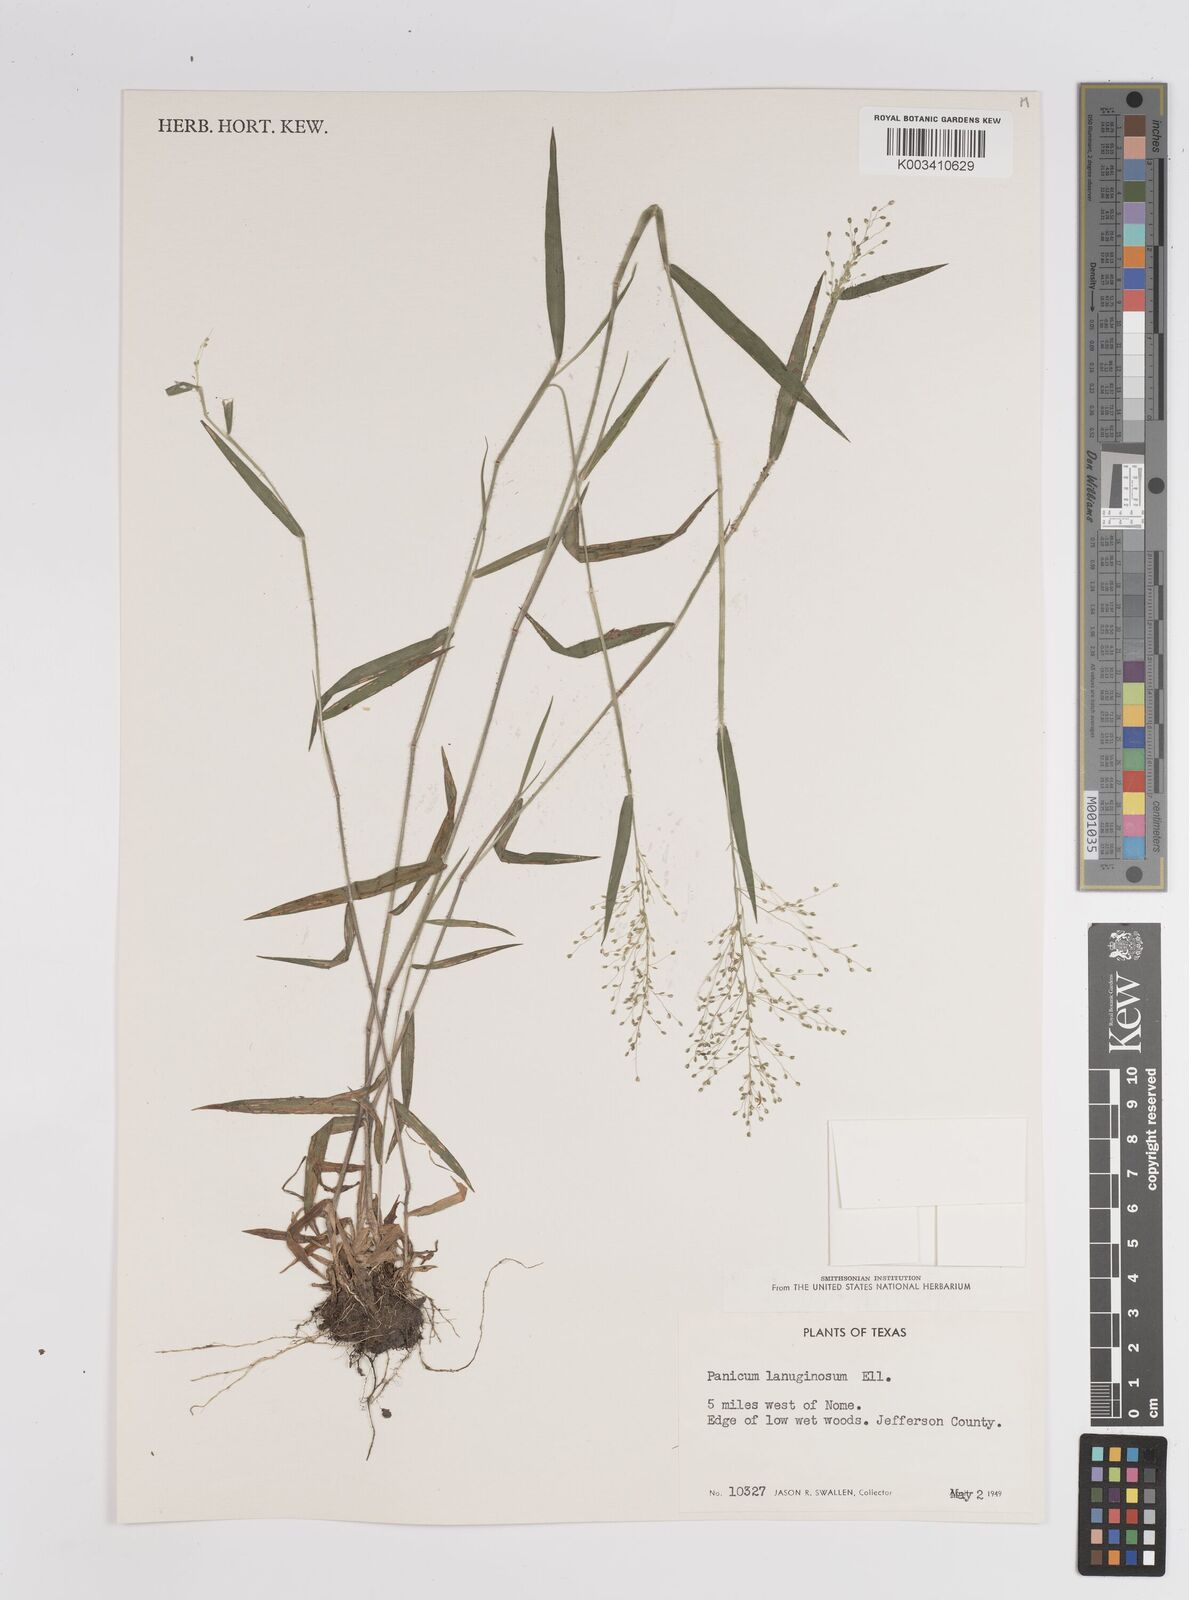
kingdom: Plantae
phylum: Tracheophyta
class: Liliopsida
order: Poales
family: Poaceae
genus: Dichanthelium
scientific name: Dichanthelium lanuginosum
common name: Woolly panicgrass
